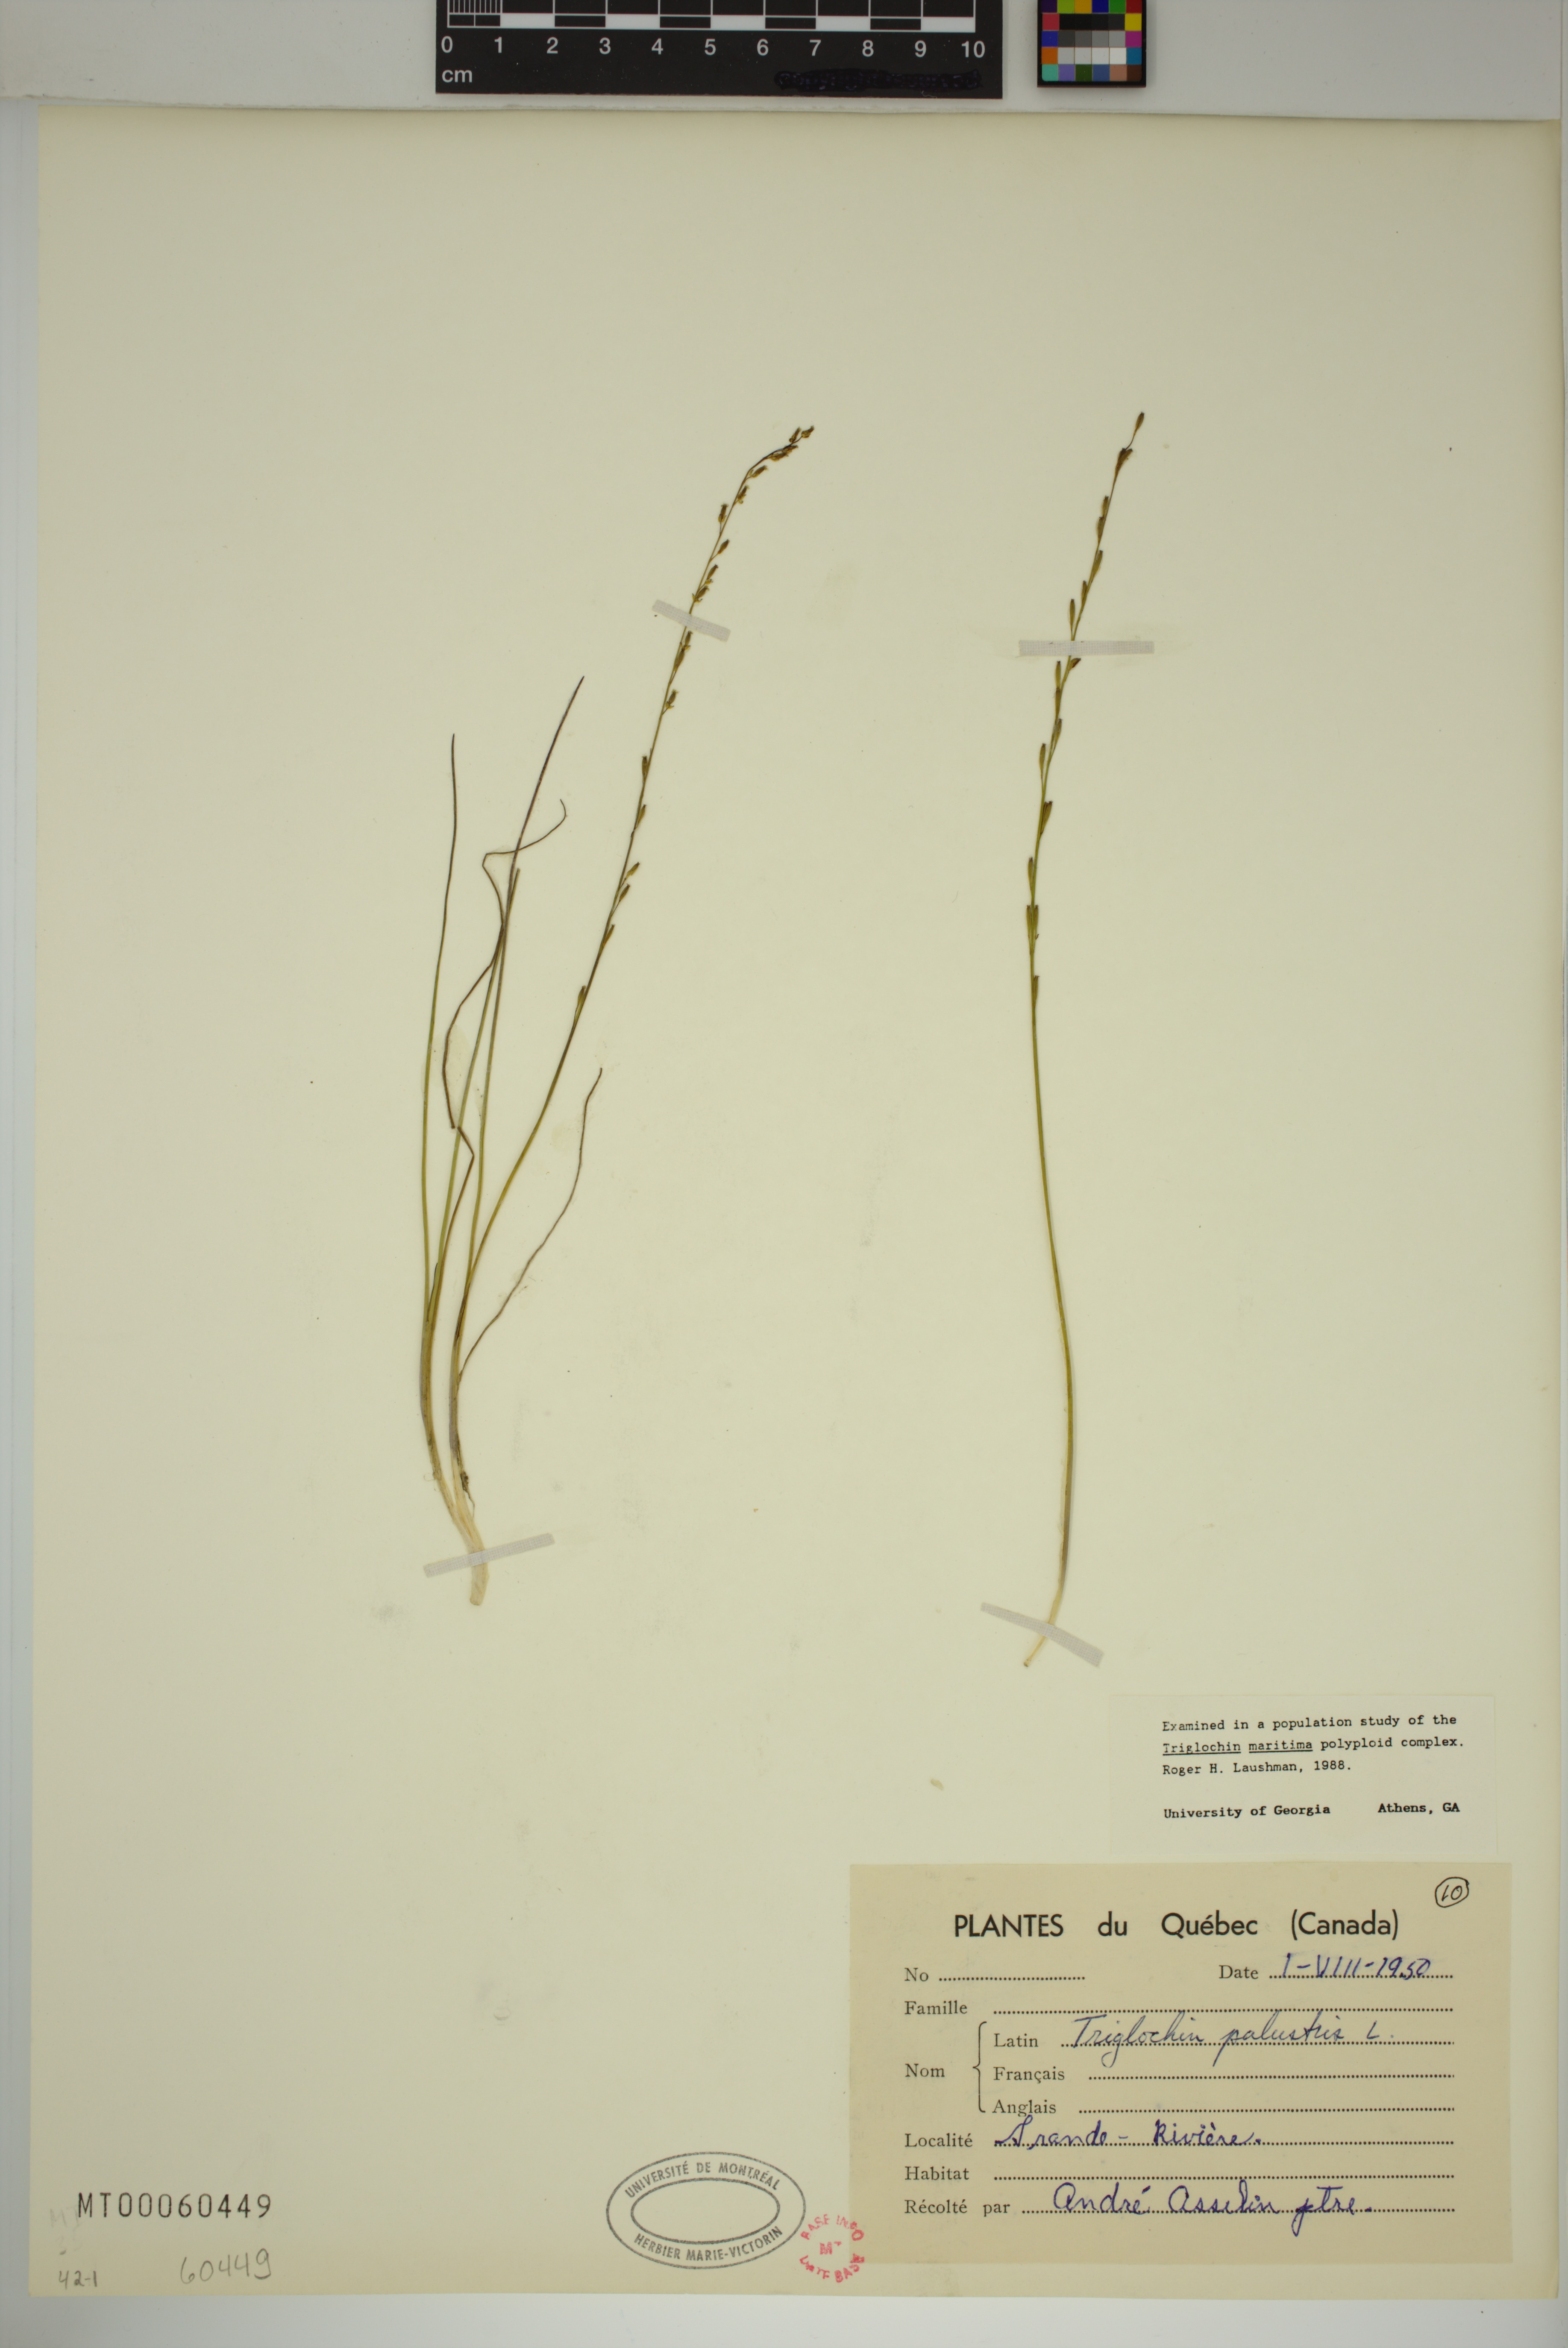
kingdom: Plantae
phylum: Tracheophyta
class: Liliopsida
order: Alismatales
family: Juncaginaceae
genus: Triglochin
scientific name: Triglochin palustris
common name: Marsh arrowgrass
